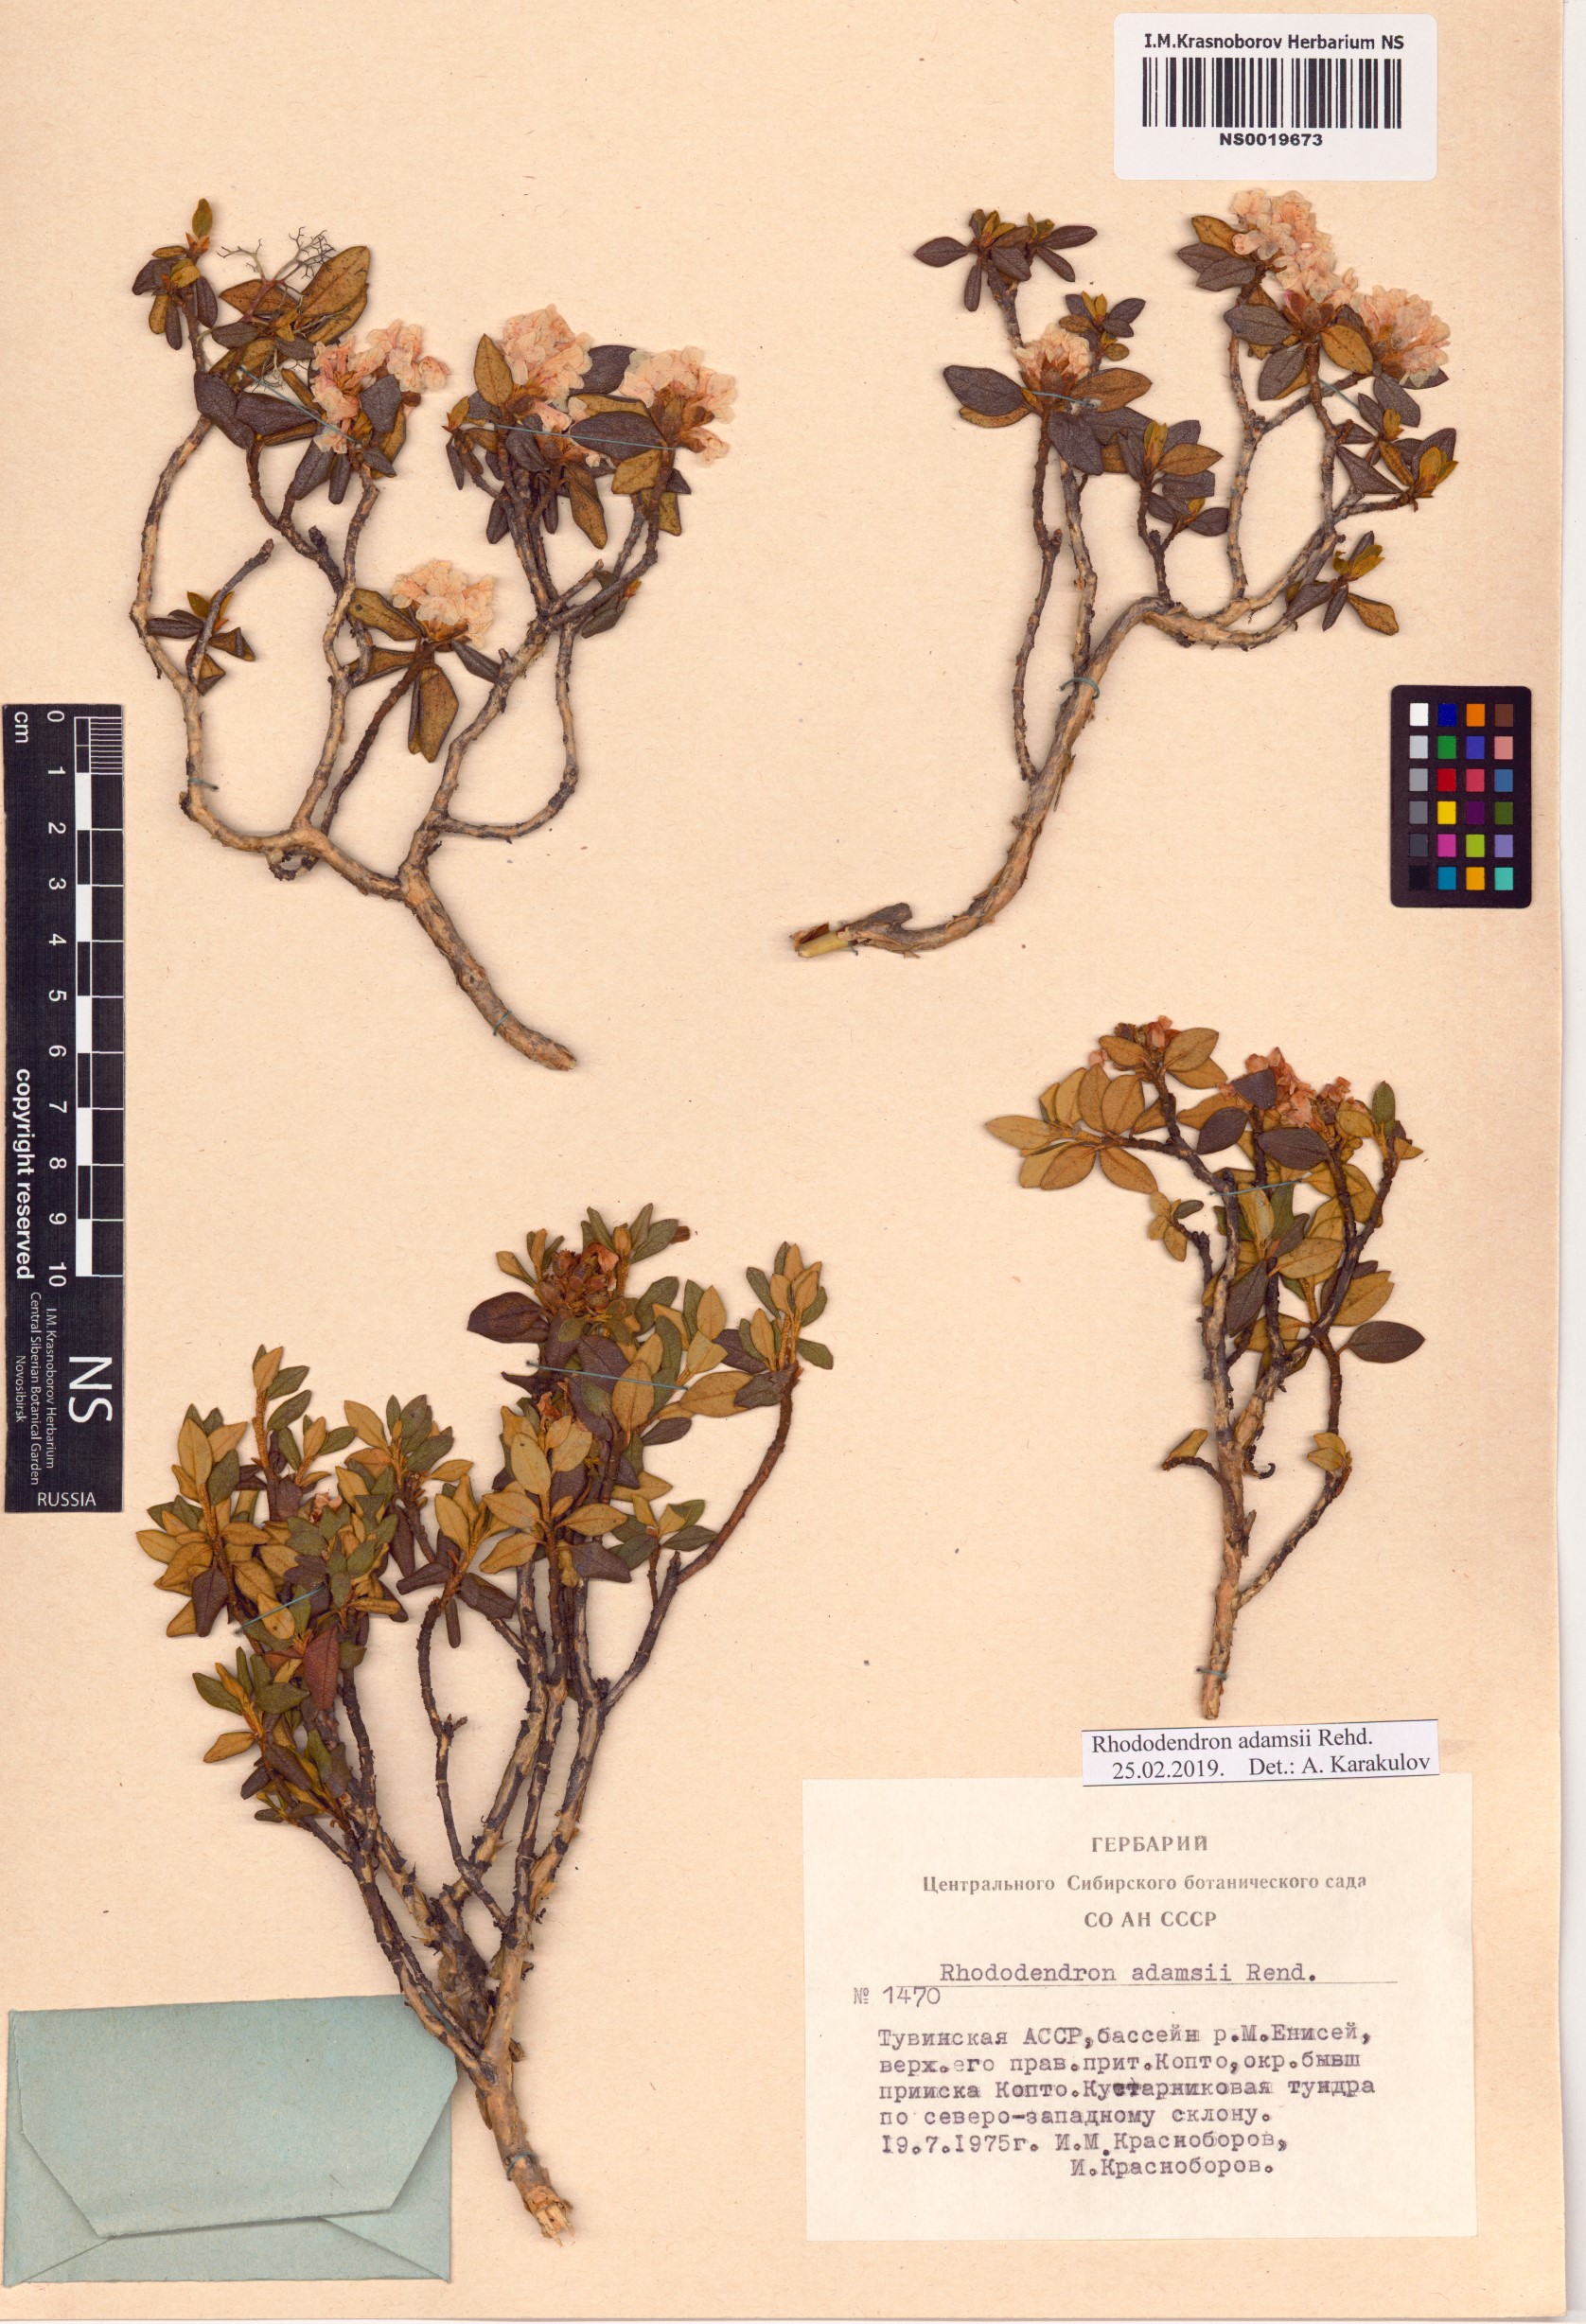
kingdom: Plantae
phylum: Tracheophyta
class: Magnoliopsida
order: Ericales
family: Ericaceae
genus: Rhododendron
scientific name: Rhododendron adamsii
